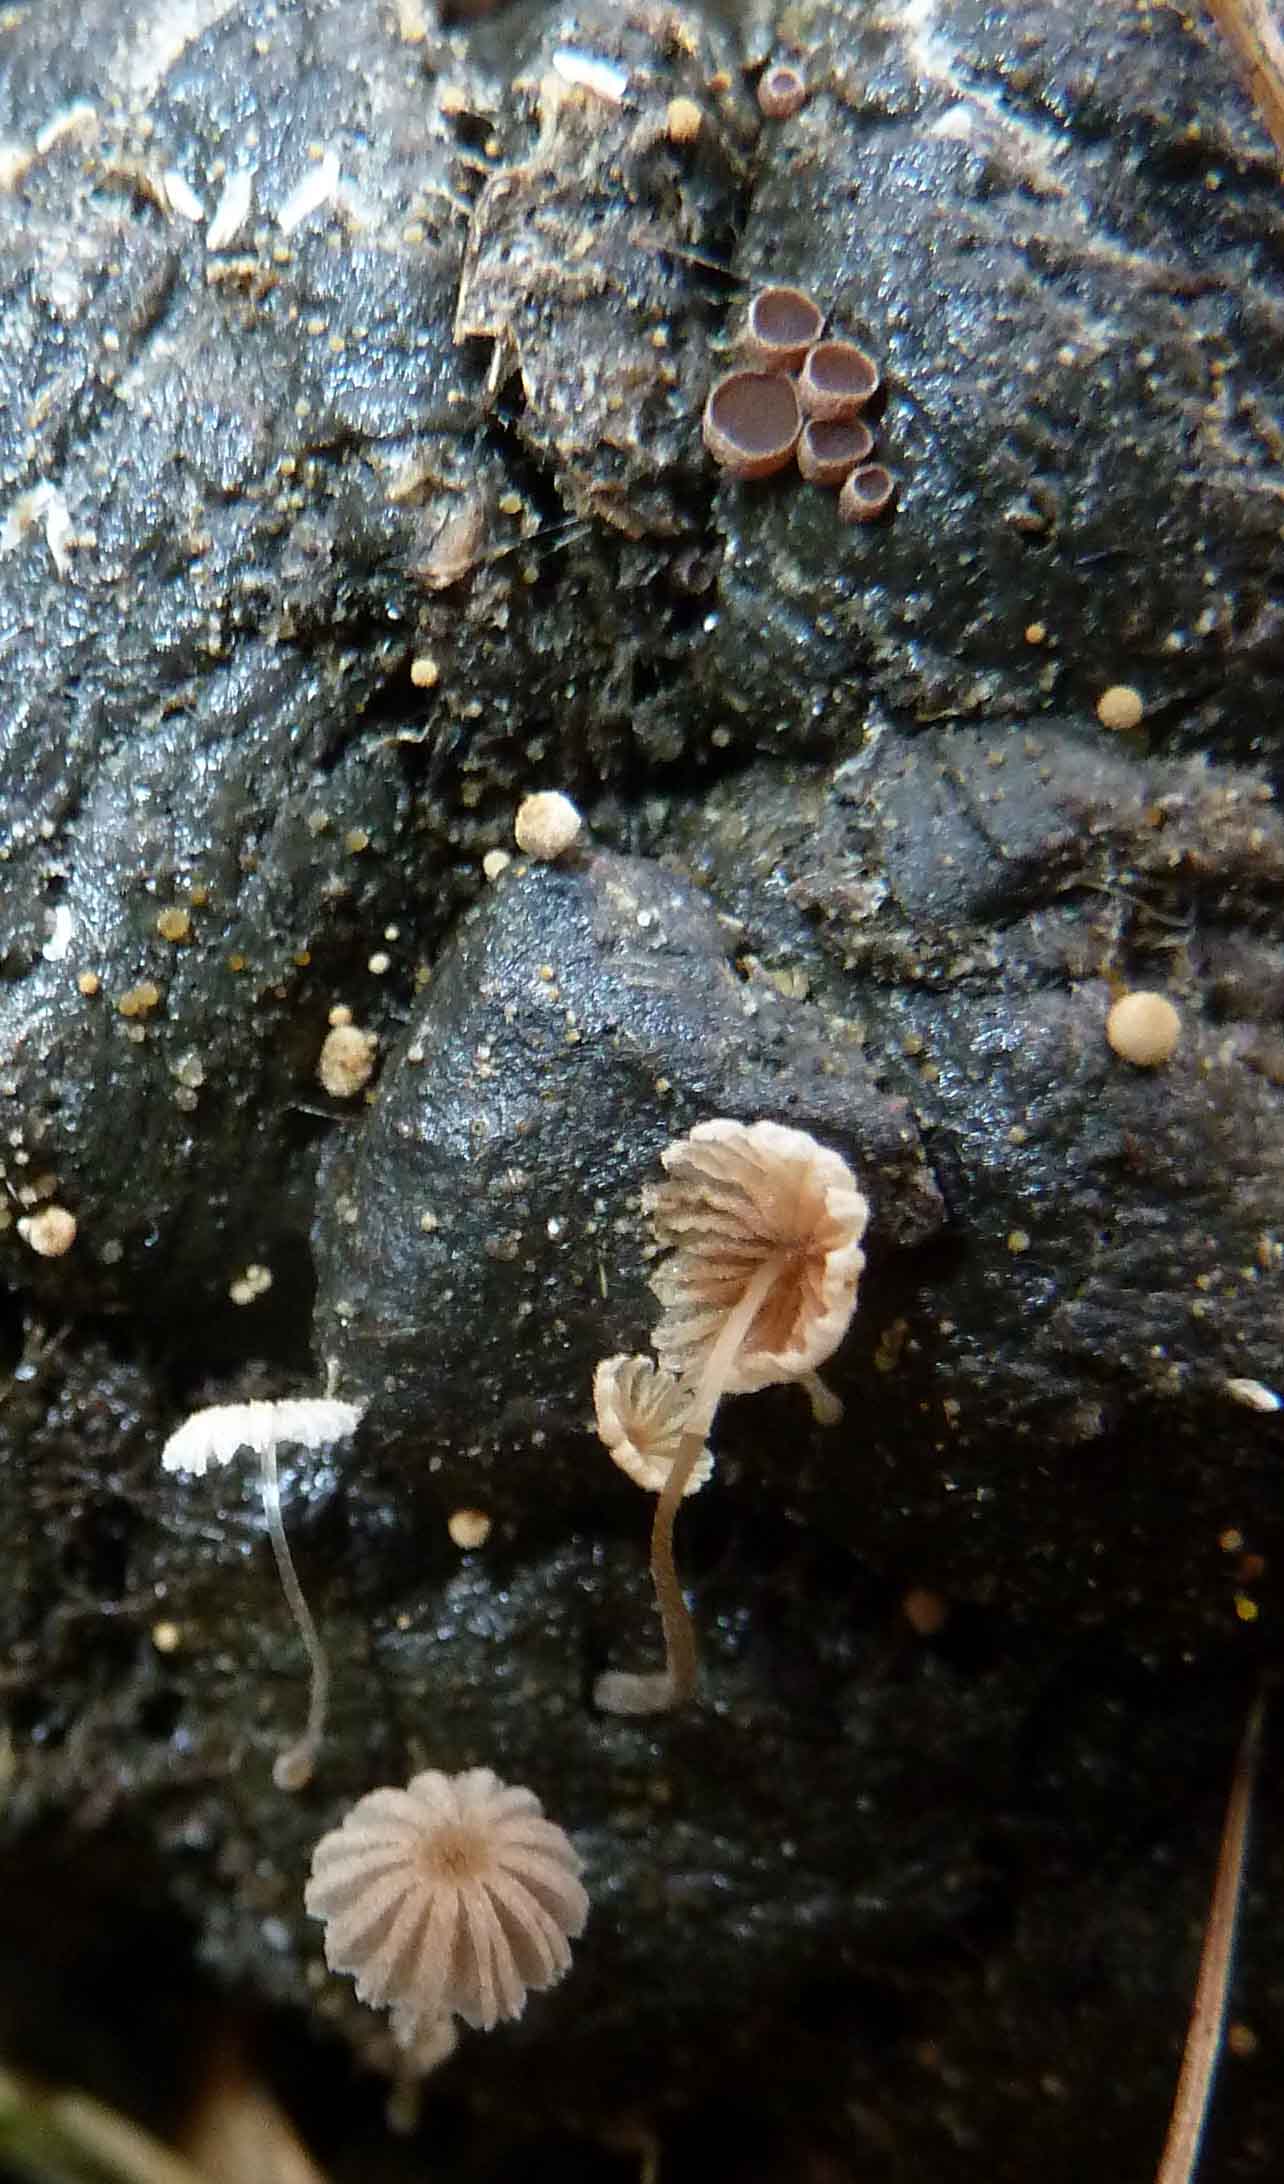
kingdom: Fungi
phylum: Basidiomycota
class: Agaricomycetes
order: Agaricales
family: Psathyrellaceae
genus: Coprinellus
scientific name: Coprinellus
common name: blækhat
